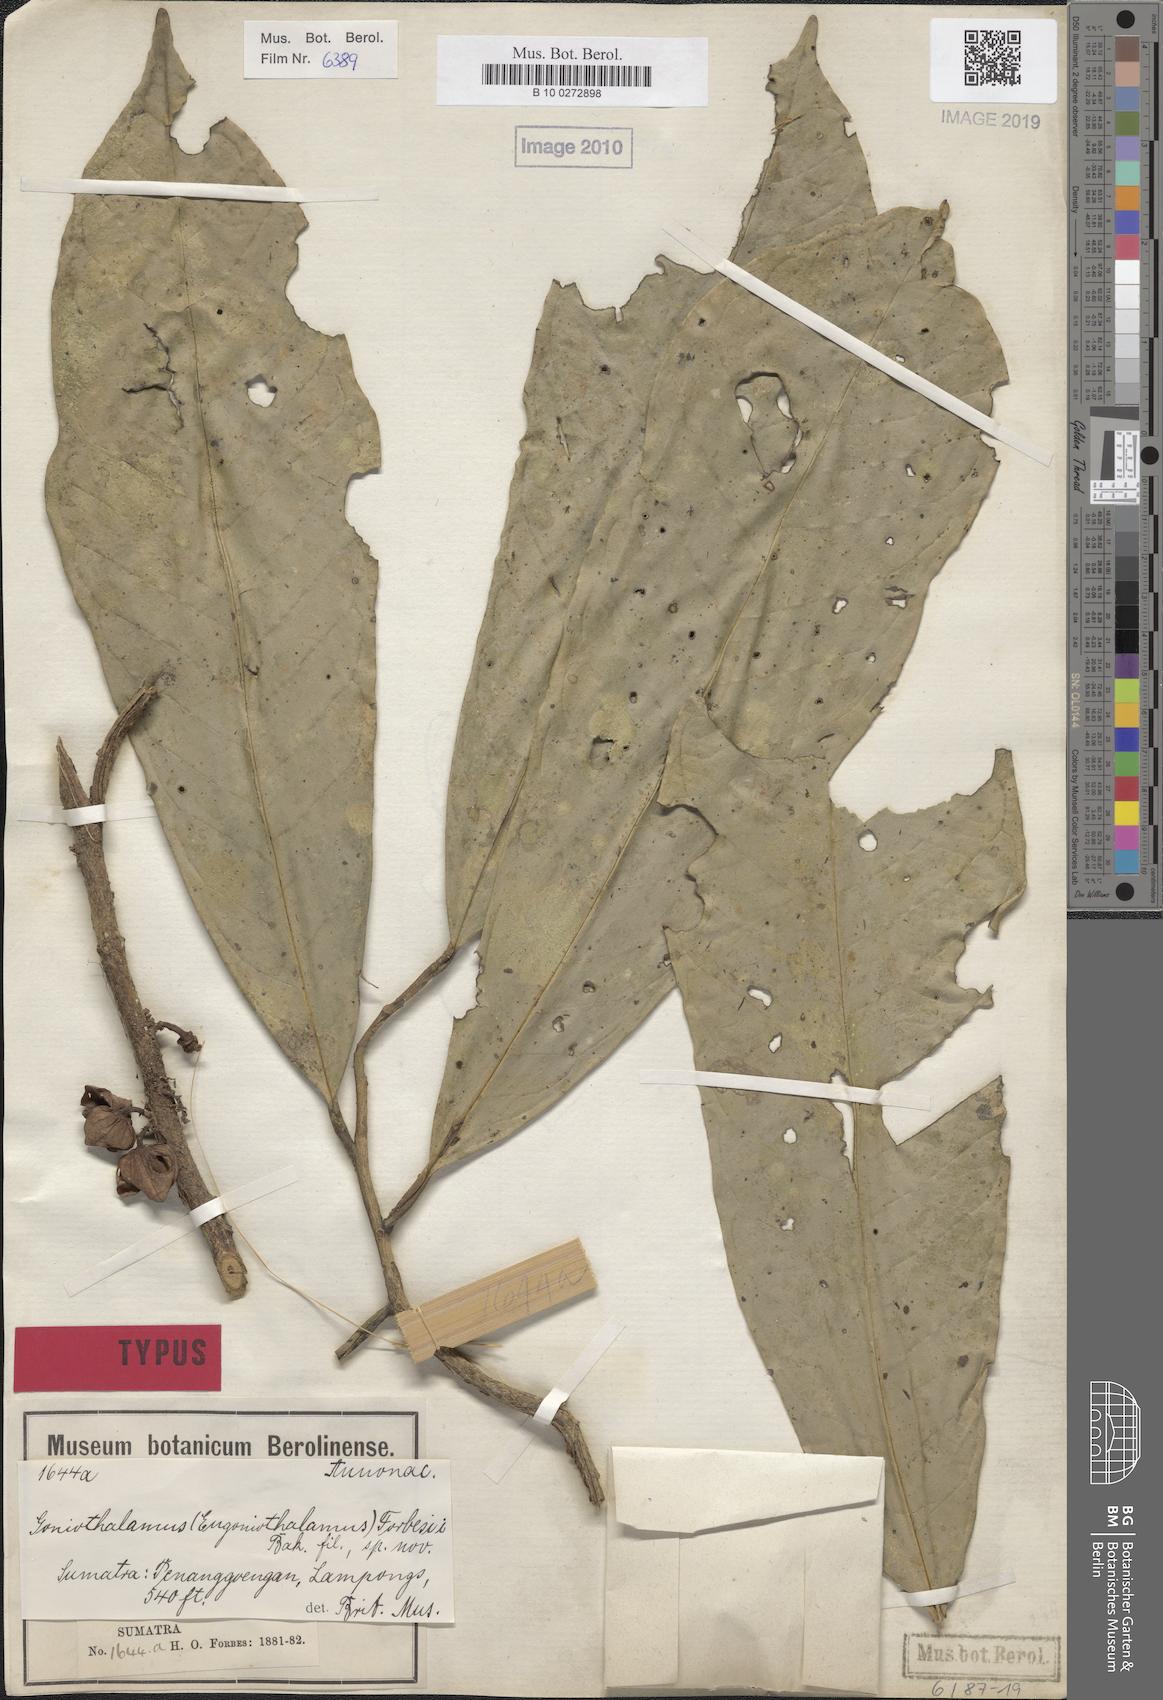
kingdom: Plantae
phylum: Tracheophyta
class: Magnoliopsida
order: Magnoliales
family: Annonaceae
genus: Goniothalamus
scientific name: Goniothalamus macrophyllus
